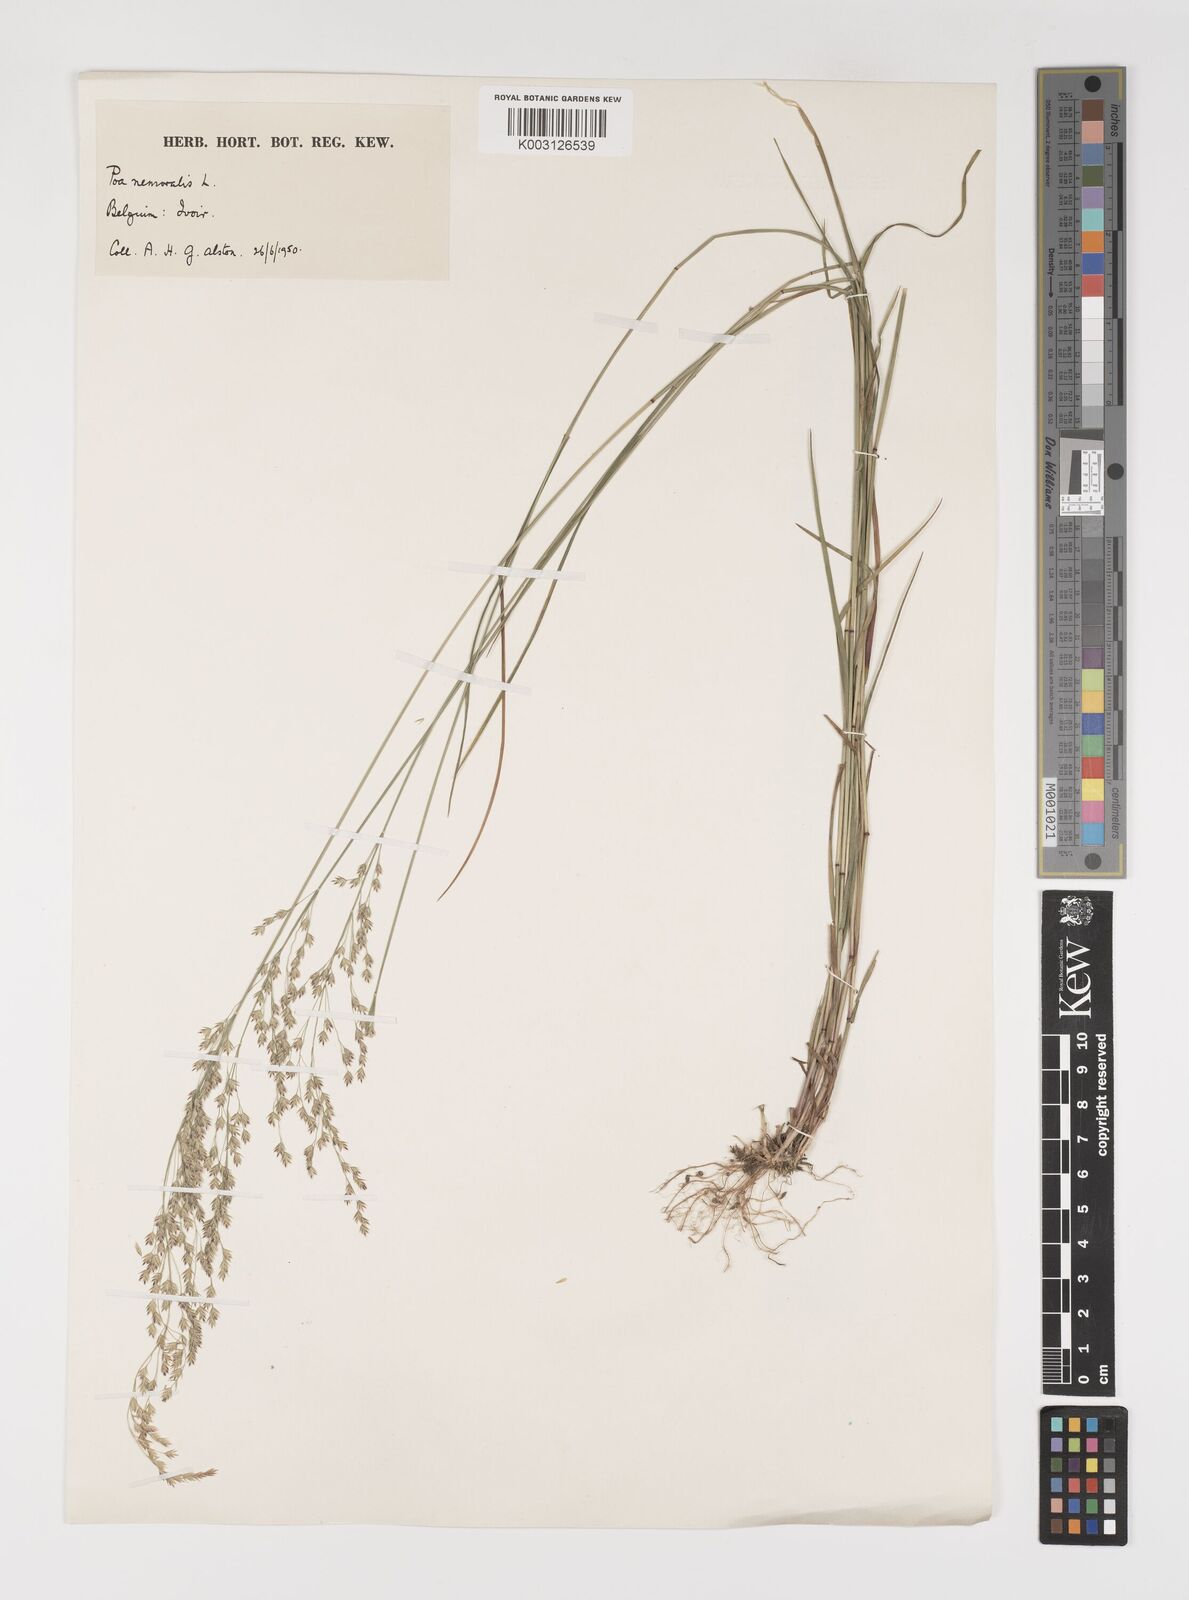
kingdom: Plantae
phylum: Tracheophyta
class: Liliopsida
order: Poales
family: Poaceae
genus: Poa
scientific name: Poa nemoralis
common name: Wood bluegrass
